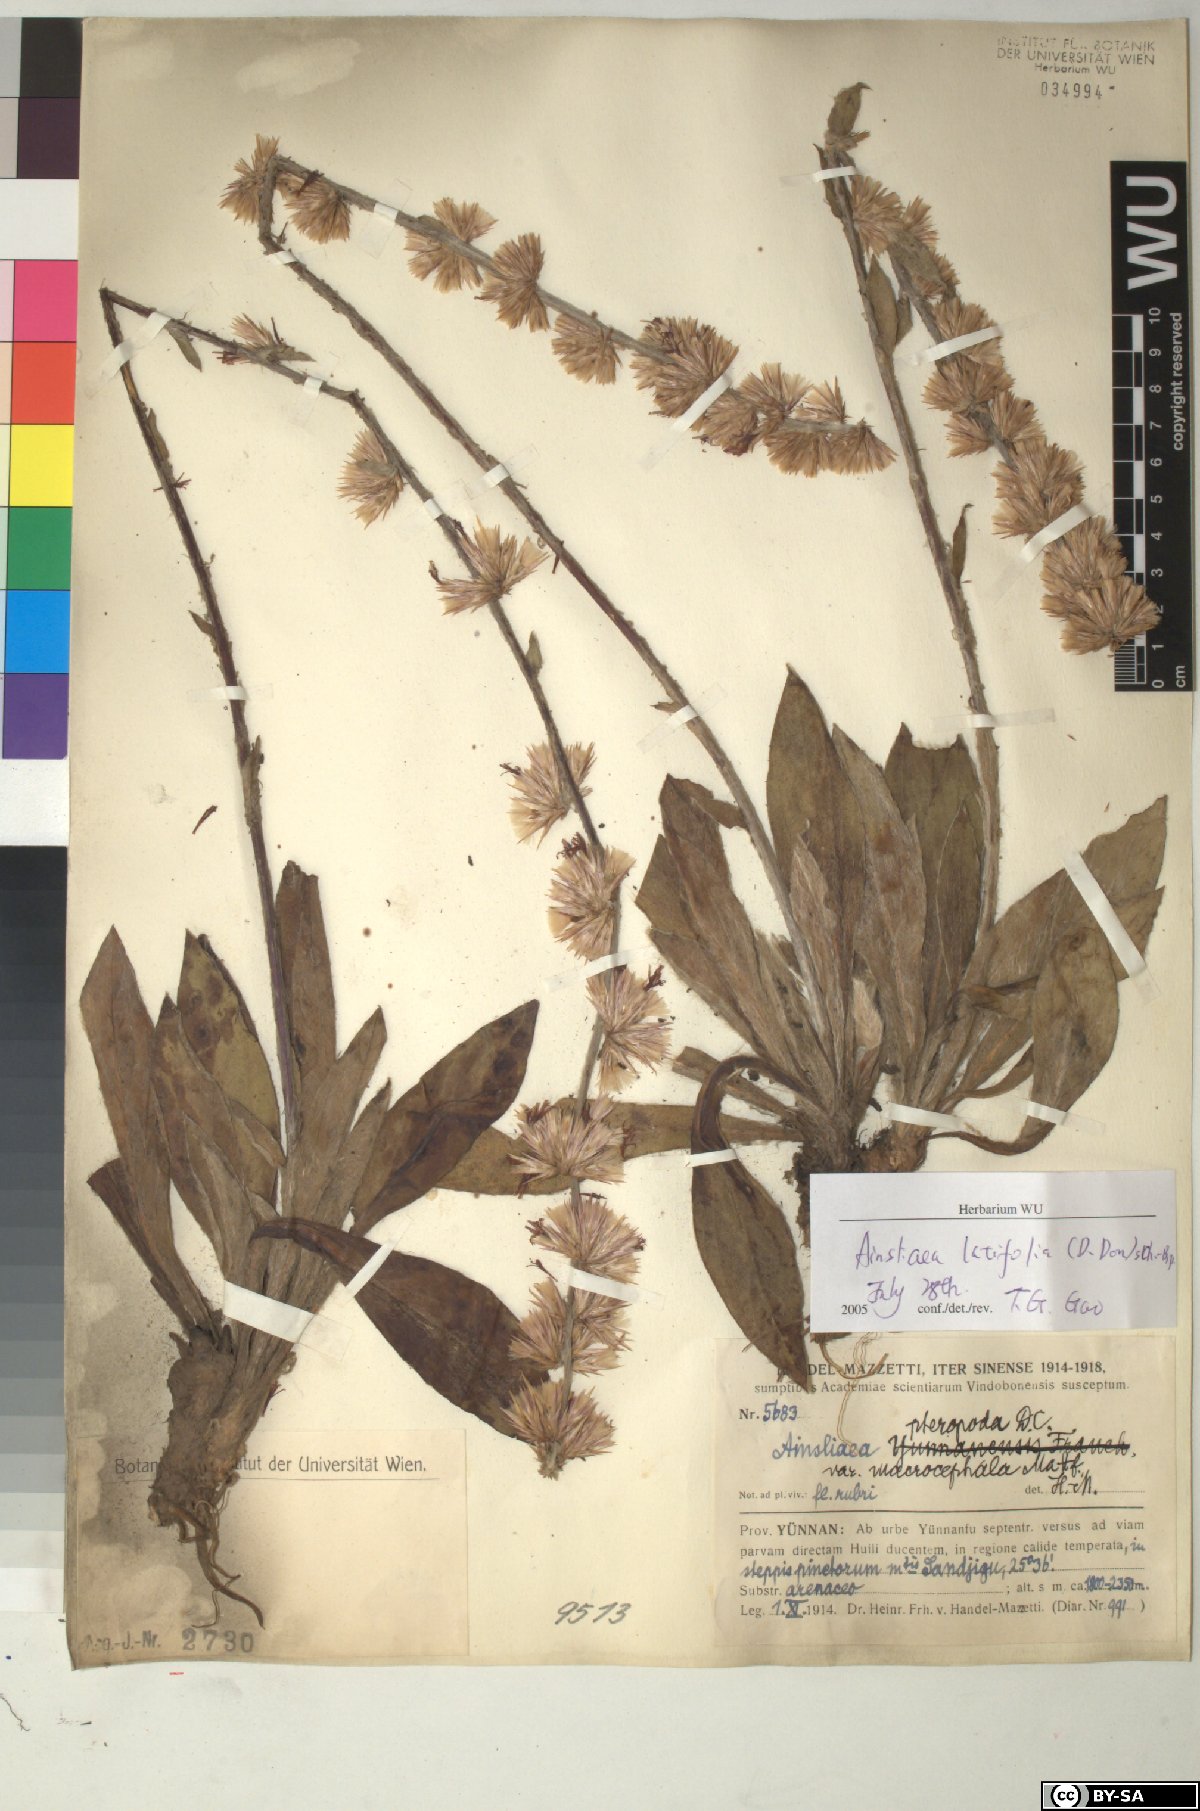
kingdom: Plantae
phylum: Tracheophyta
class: Magnoliopsida
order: Asterales
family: Asteraceae
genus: Ainsliaea
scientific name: Ainsliaea latifolia
